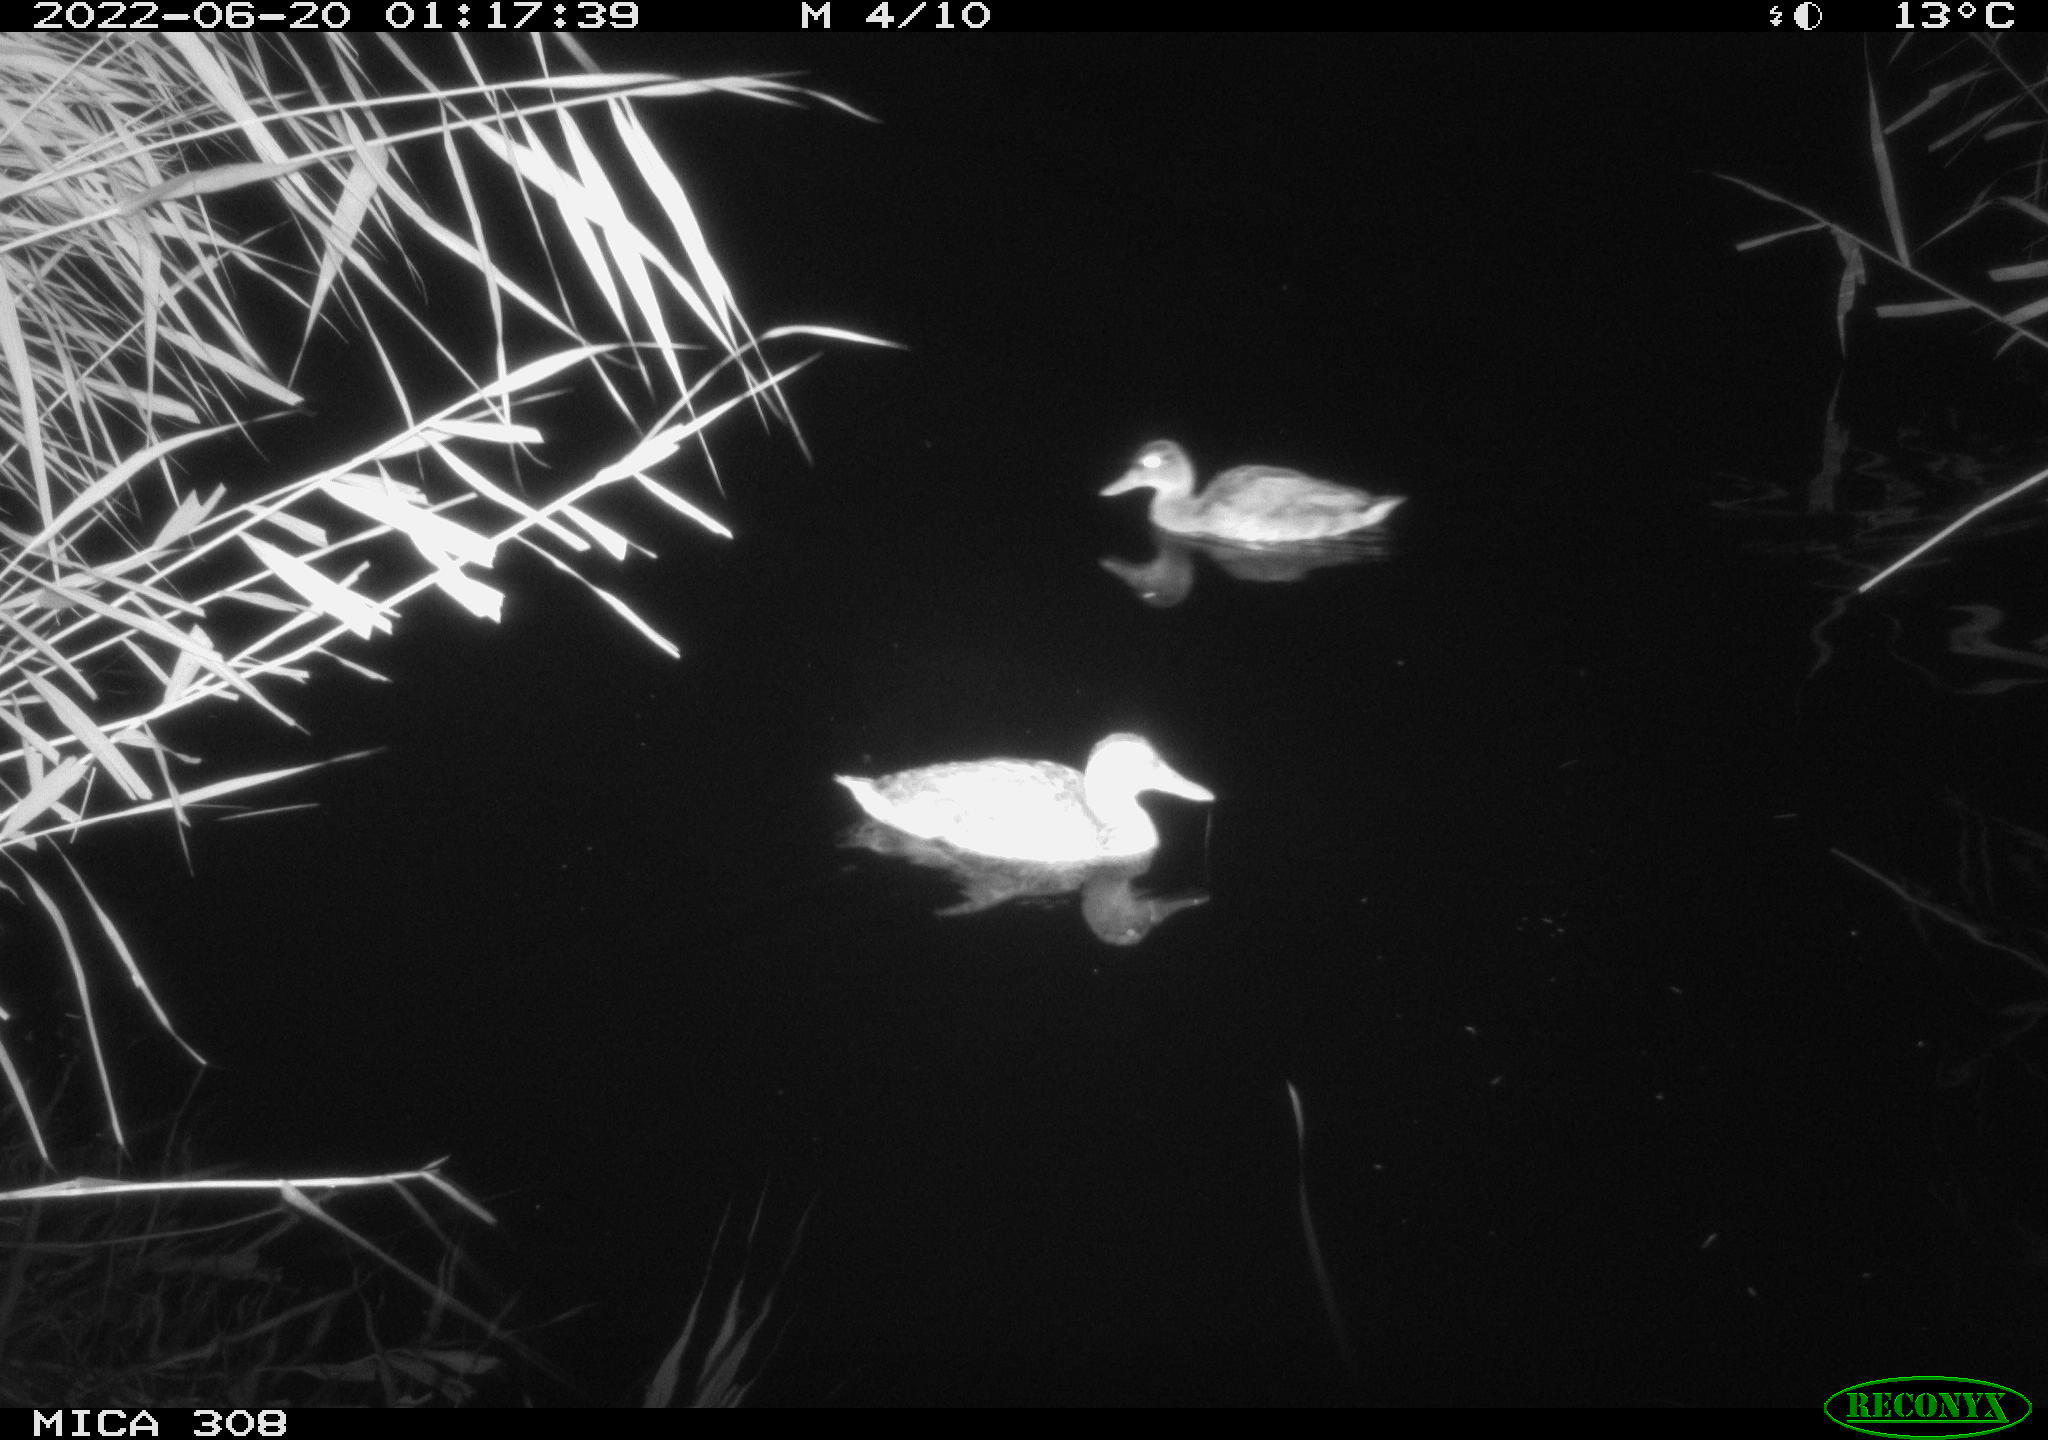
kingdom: Animalia
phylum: Chordata
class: Aves
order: Anseriformes
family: Anatidae
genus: Anas
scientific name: Anas platyrhynchos
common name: Mallard
